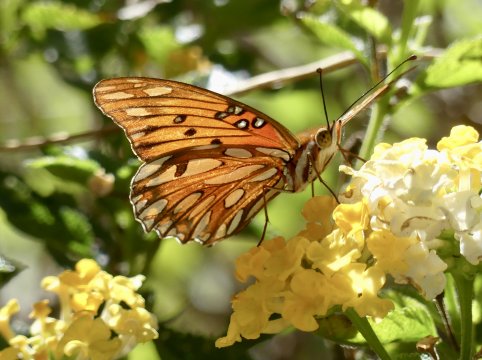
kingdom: Animalia
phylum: Arthropoda
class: Insecta
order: Lepidoptera
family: Nymphalidae
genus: Dione
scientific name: Dione vanillae
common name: Gulf Fritillary
